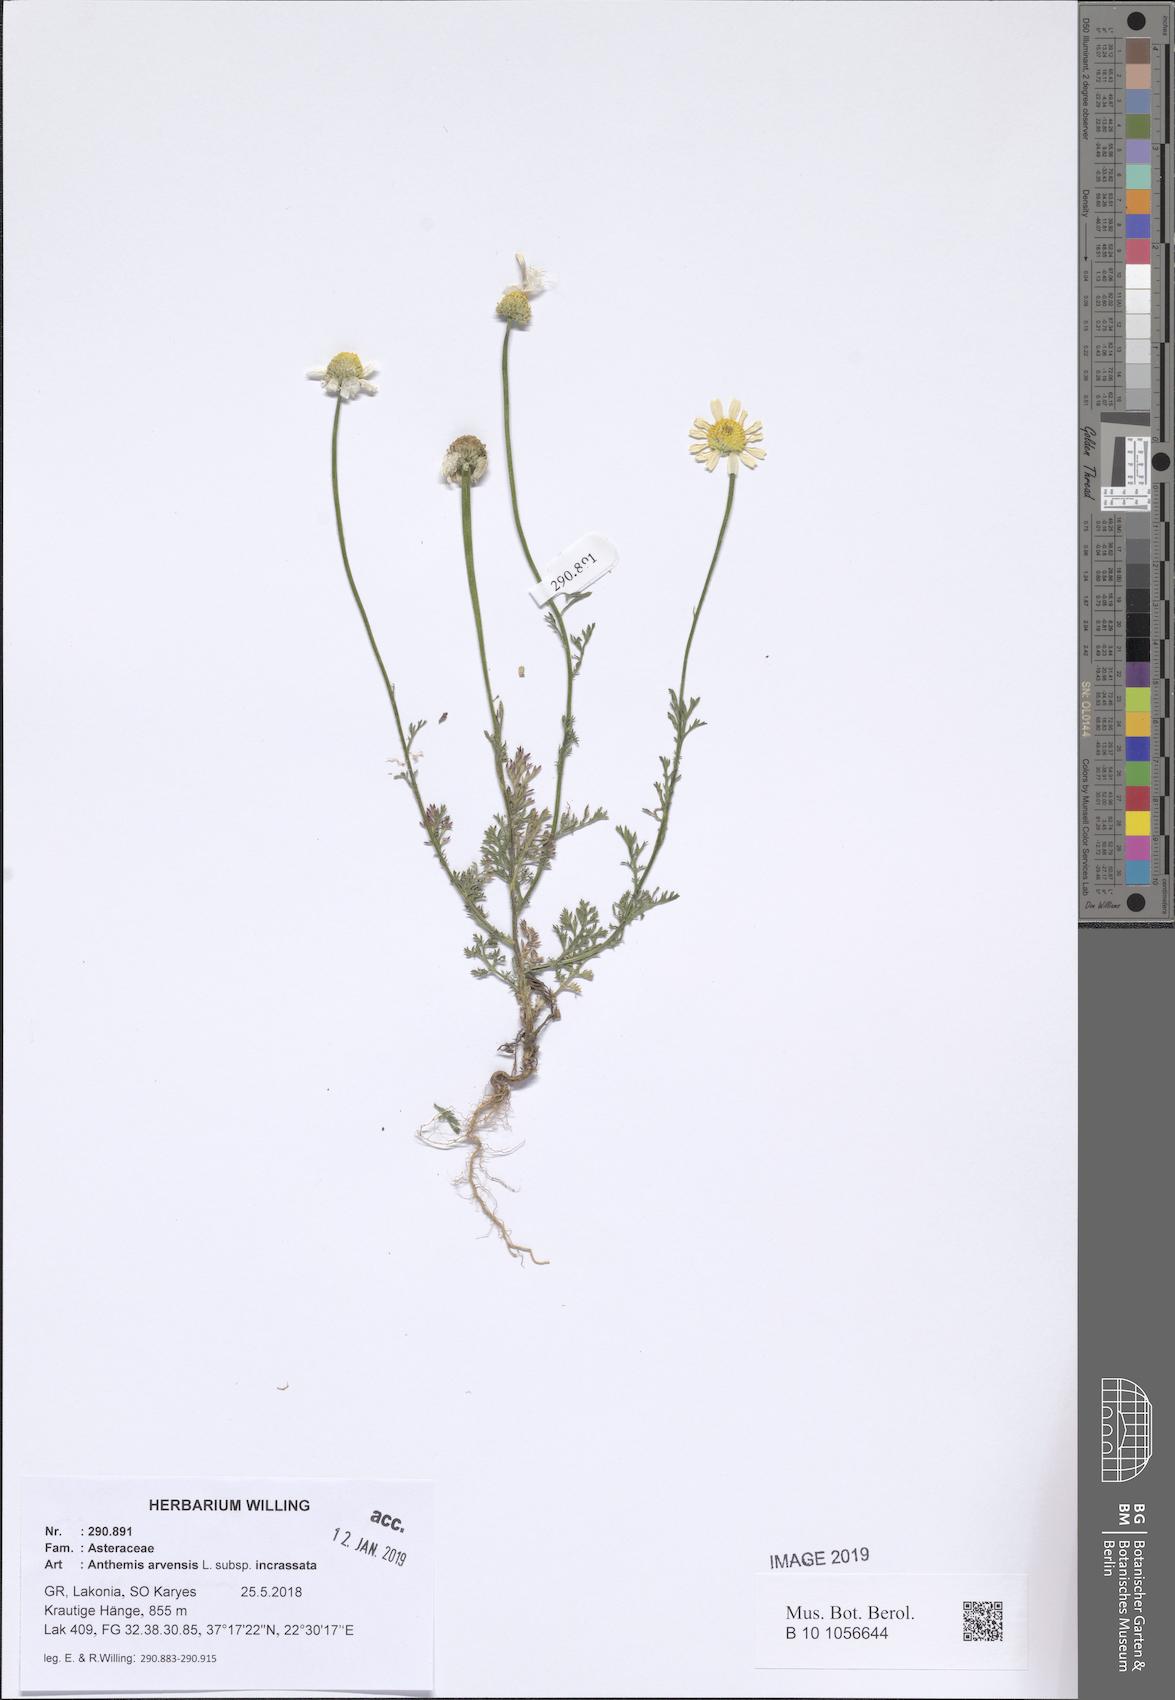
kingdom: Plantae
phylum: Tracheophyta
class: Magnoliopsida
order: Asterales
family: Asteraceae
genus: Anthemis
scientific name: Anthemis arvensis
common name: Corn chamomile
